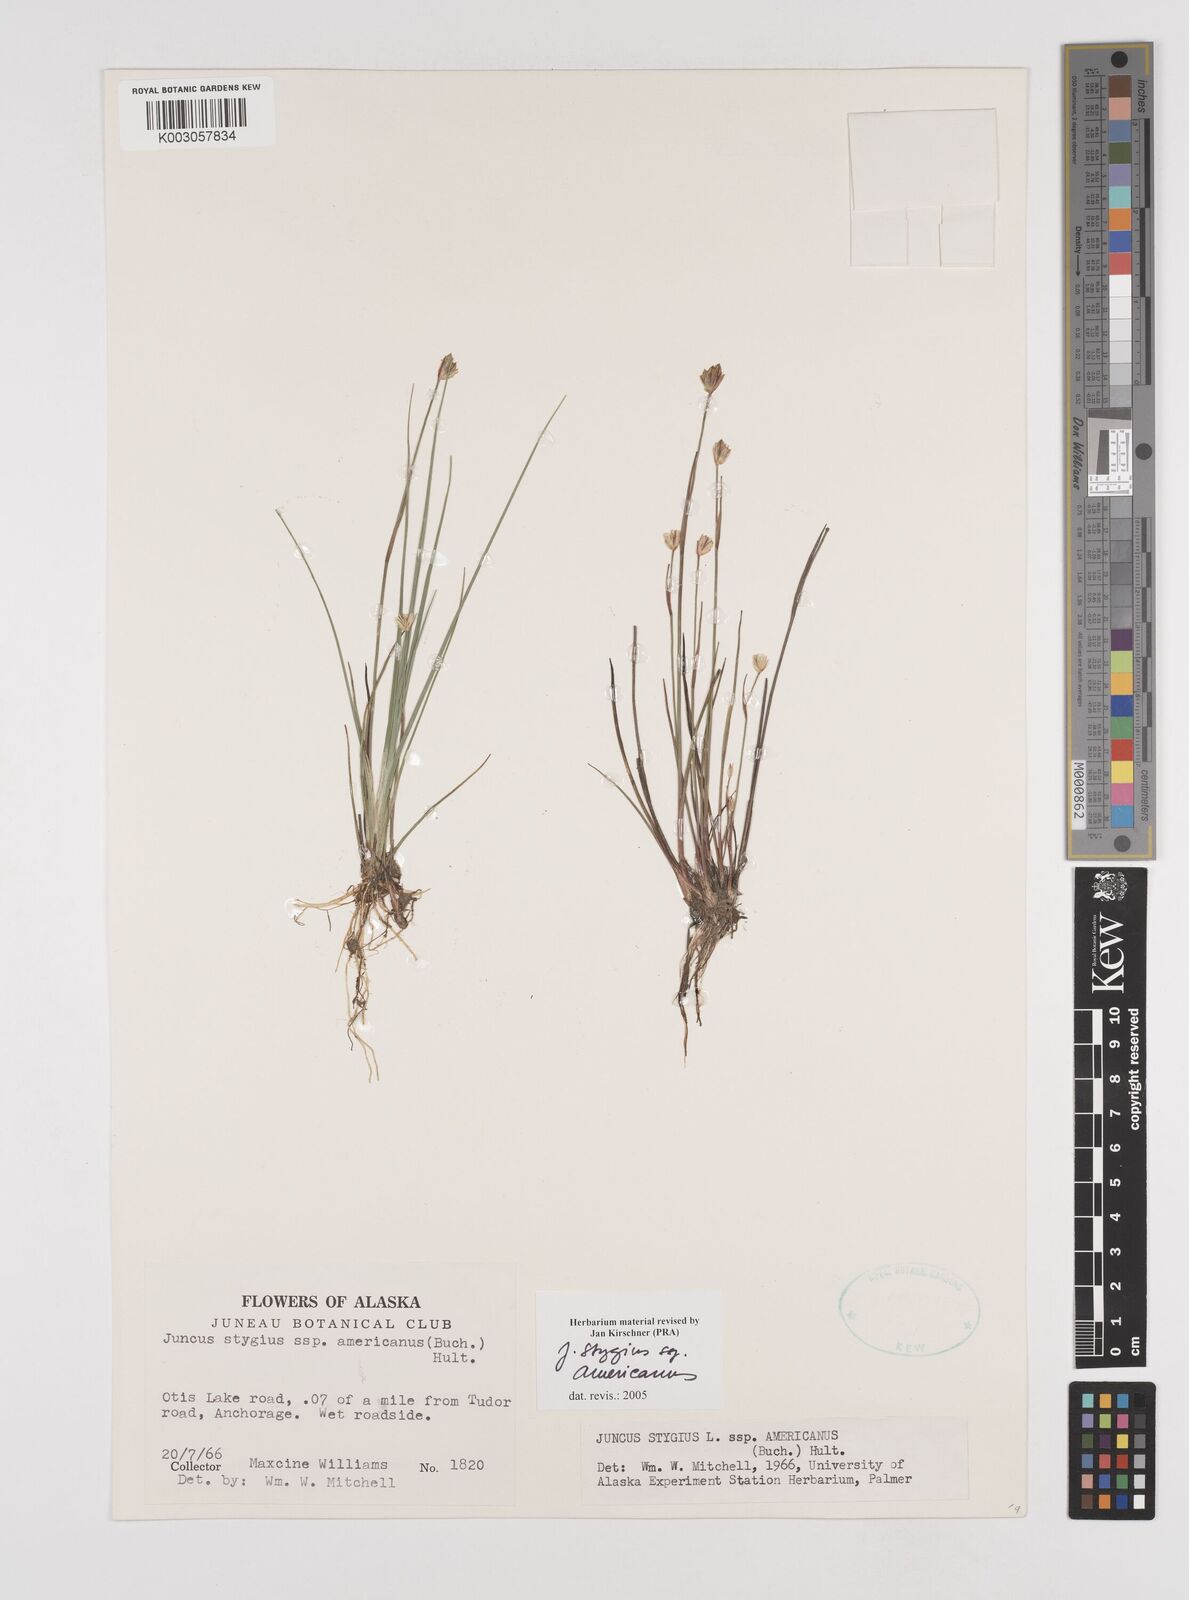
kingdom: Plantae
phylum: Tracheophyta
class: Liliopsida
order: Poales
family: Juncaceae
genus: Juncus
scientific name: Juncus stygius
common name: Bog rush
